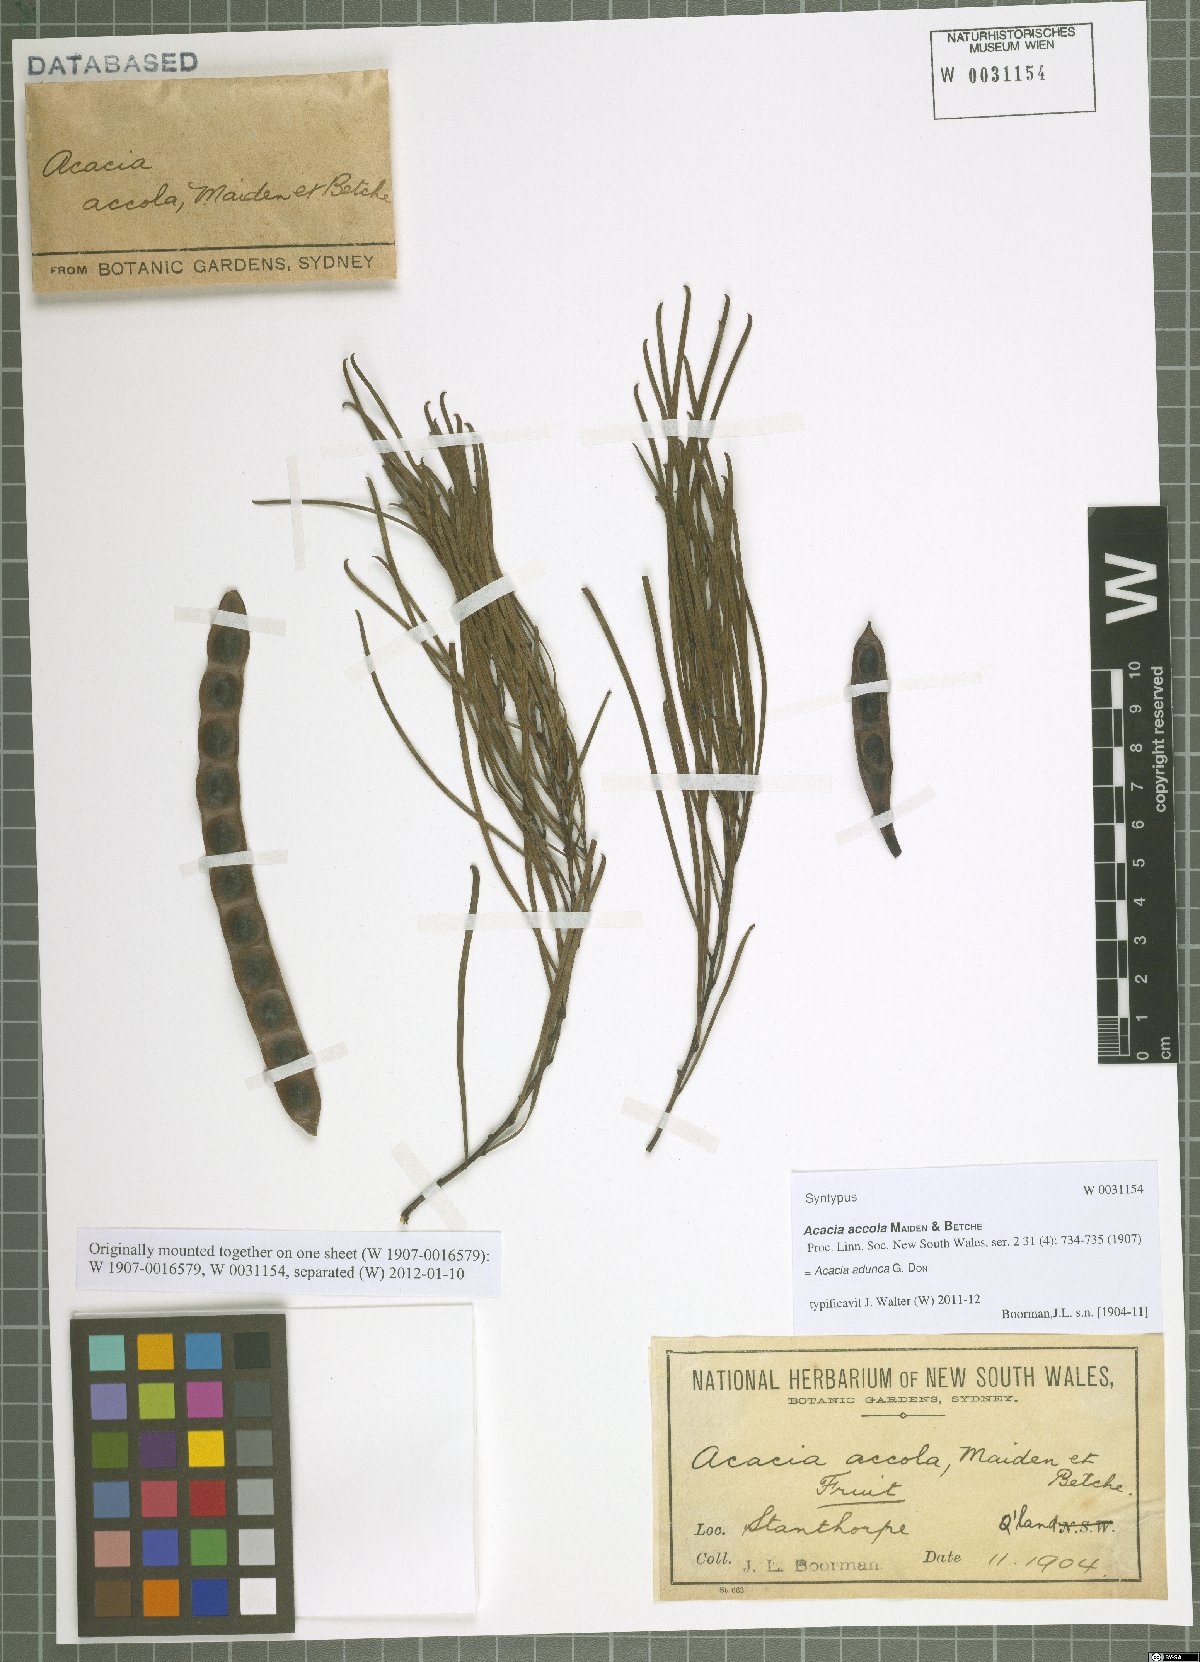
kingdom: Plantae
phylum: Tracheophyta
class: Magnoliopsida
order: Fabales
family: Fabaceae
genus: Acacia
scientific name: Acacia adunca
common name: Wallangarra wattle
